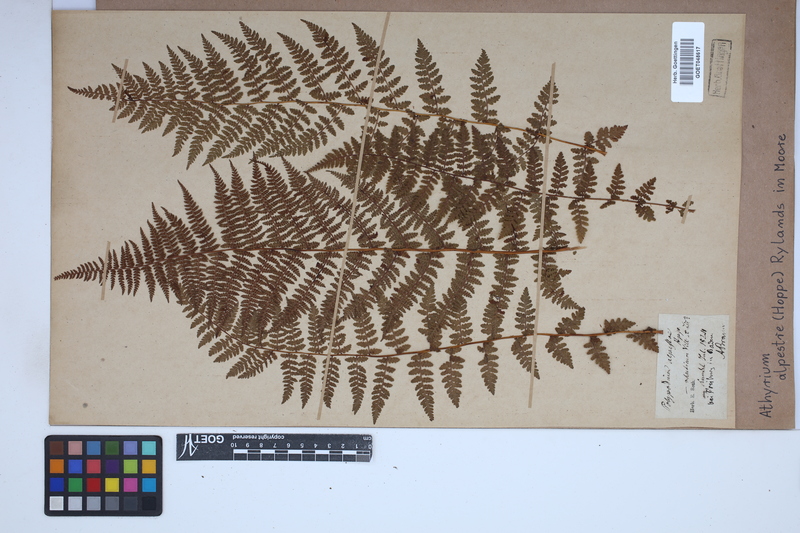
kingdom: Plantae
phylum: Tracheophyta
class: Polypodiopsida
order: Polypodiales
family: Athyriaceae
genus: Pseudathyrium
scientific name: Pseudathyrium alpestre
